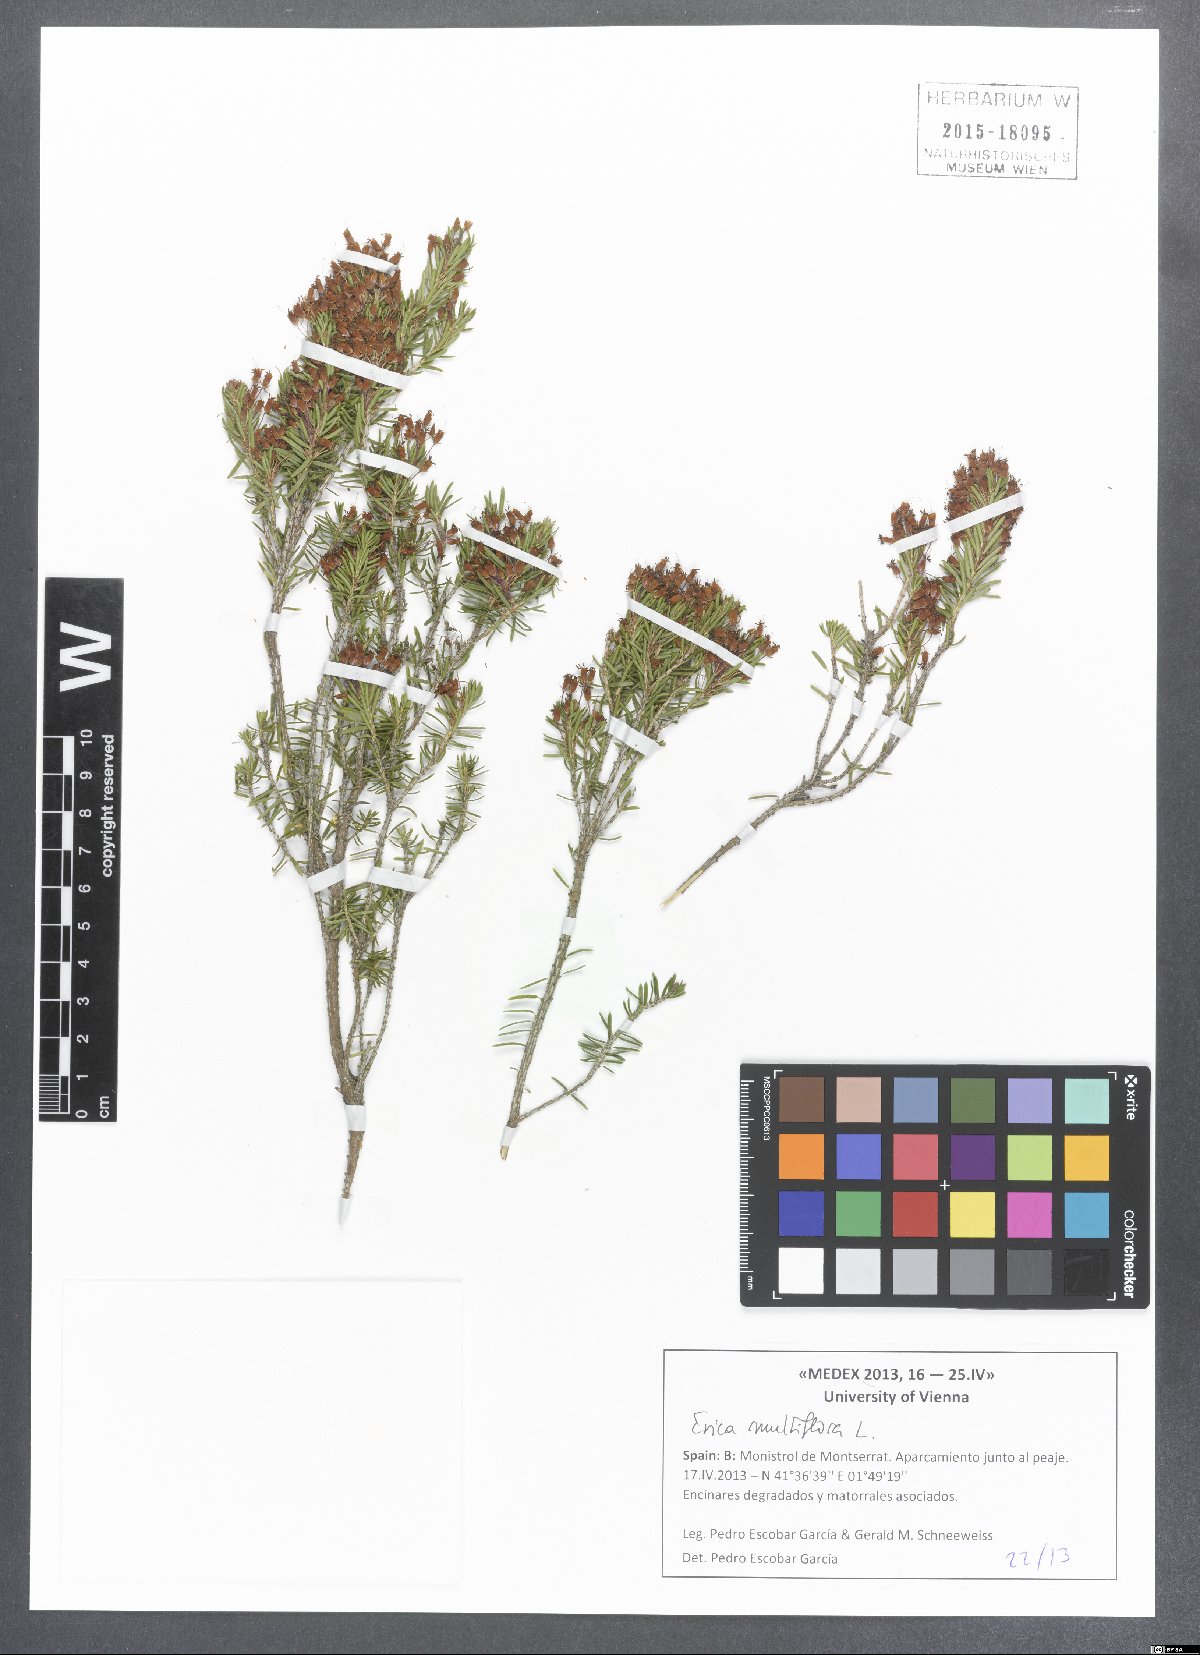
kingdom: Plantae
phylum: Tracheophyta
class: Magnoliopsida
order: Ericales
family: Ericaceae
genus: Erica
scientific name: Erica multiflora
